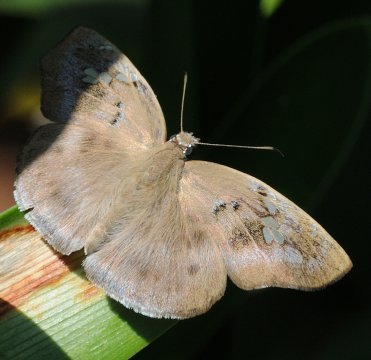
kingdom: Animalia
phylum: Arthropoda
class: Insecta
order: Lepidoptera
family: Hesperiidae
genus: Tagiades
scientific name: Tagiades flesus
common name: Clouded Flat
